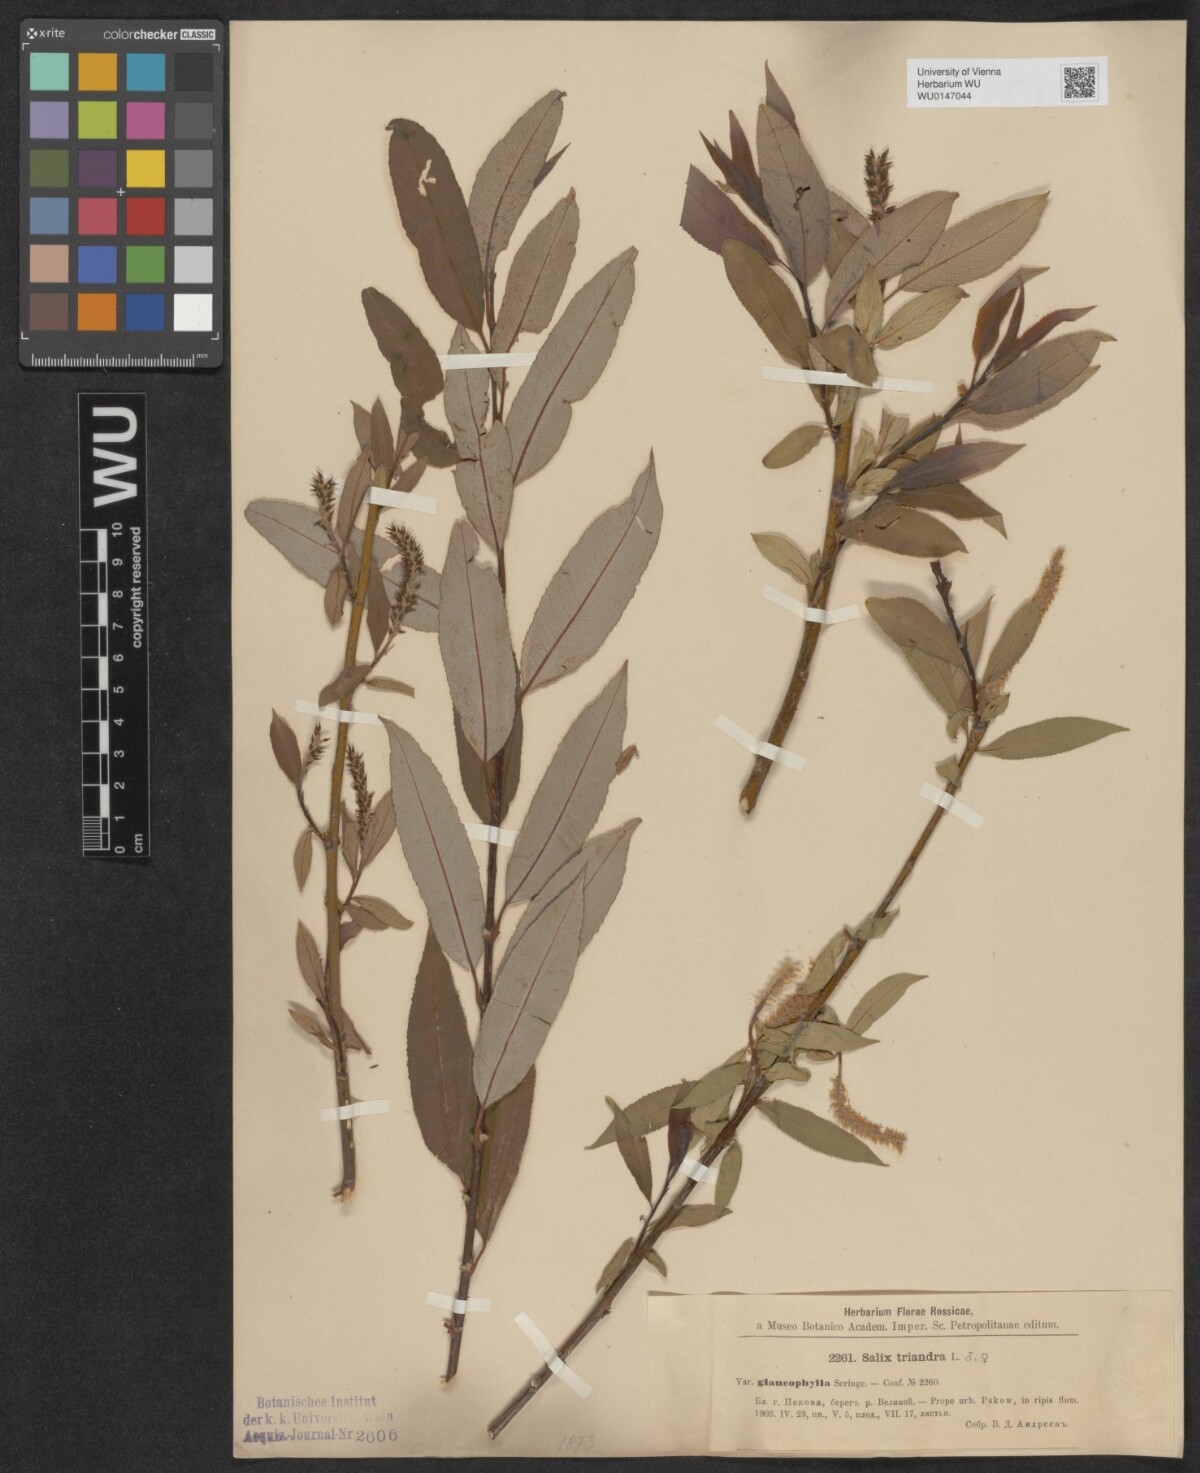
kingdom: Plantae
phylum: Tracheophyta
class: Magnoliopsida
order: Malpighiales
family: Salicaceae
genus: Salix
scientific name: Salix triandra
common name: Almond willow
